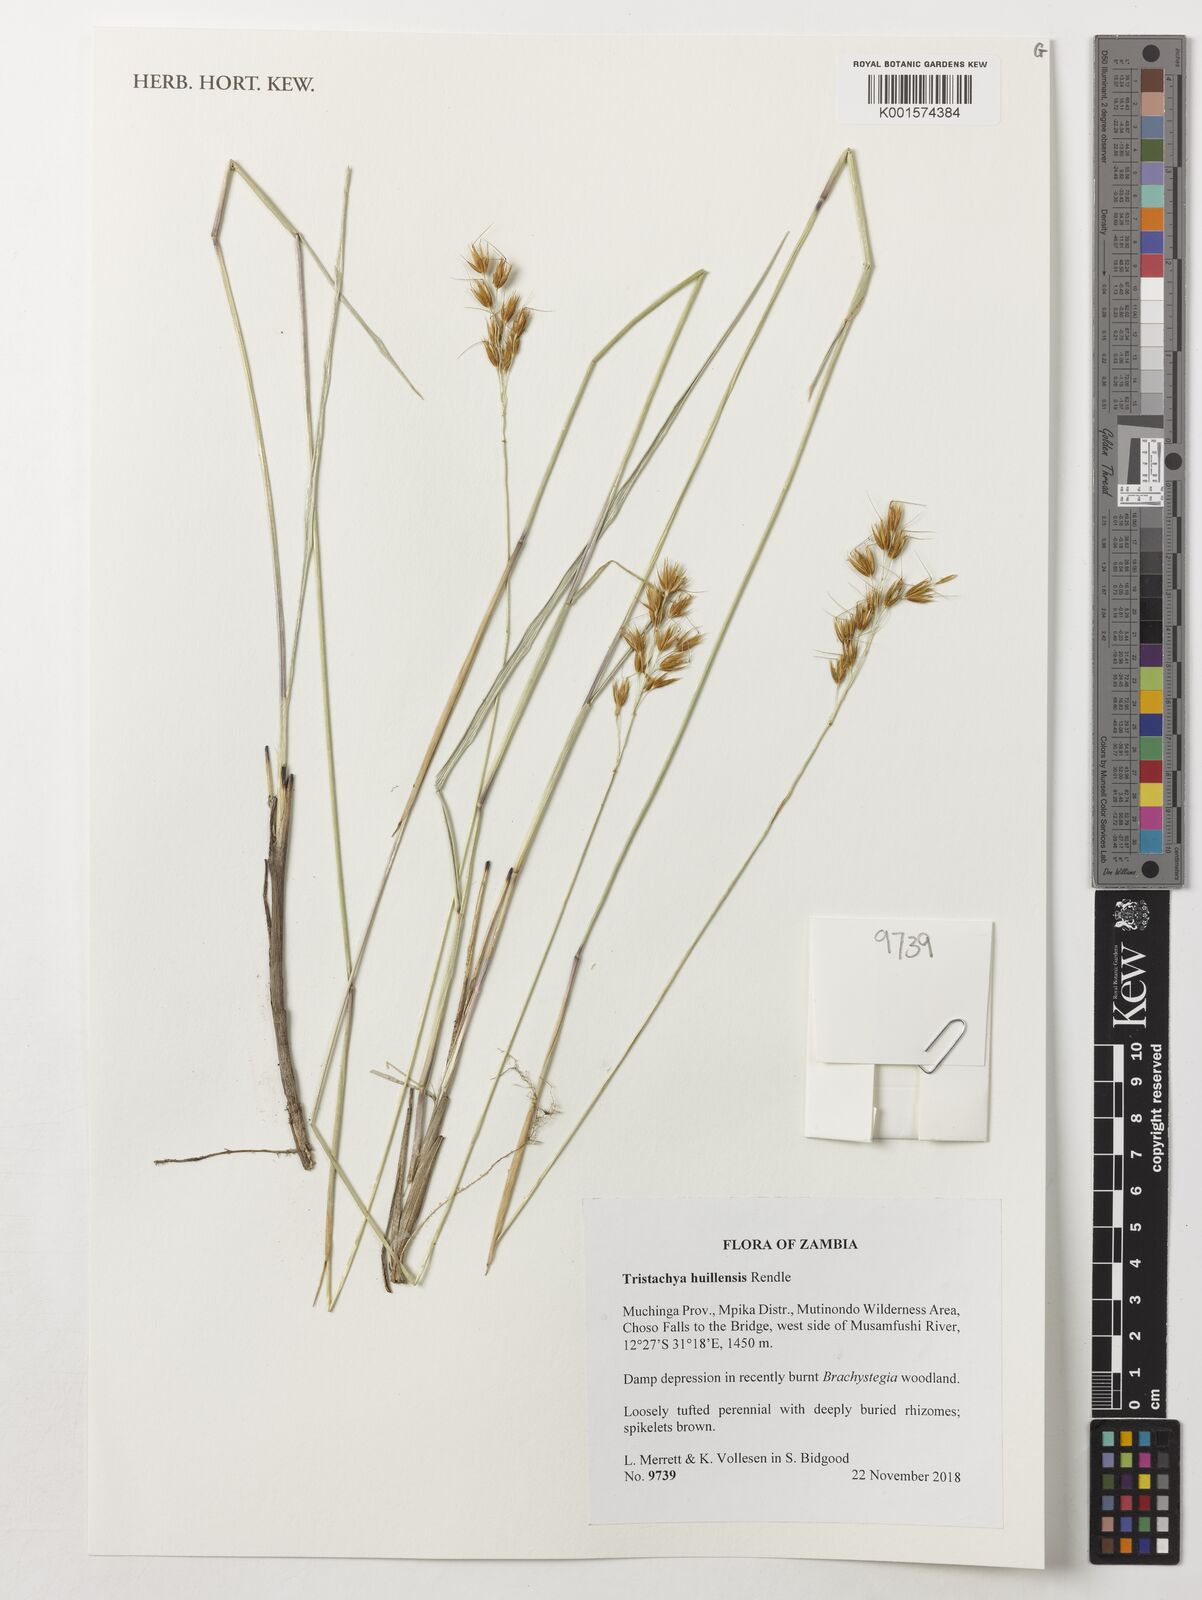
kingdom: Plantae
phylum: Tracheophyta
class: Liliopsida
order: Poales
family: Poaceae
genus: Tristachya
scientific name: Tristachya huillensis
